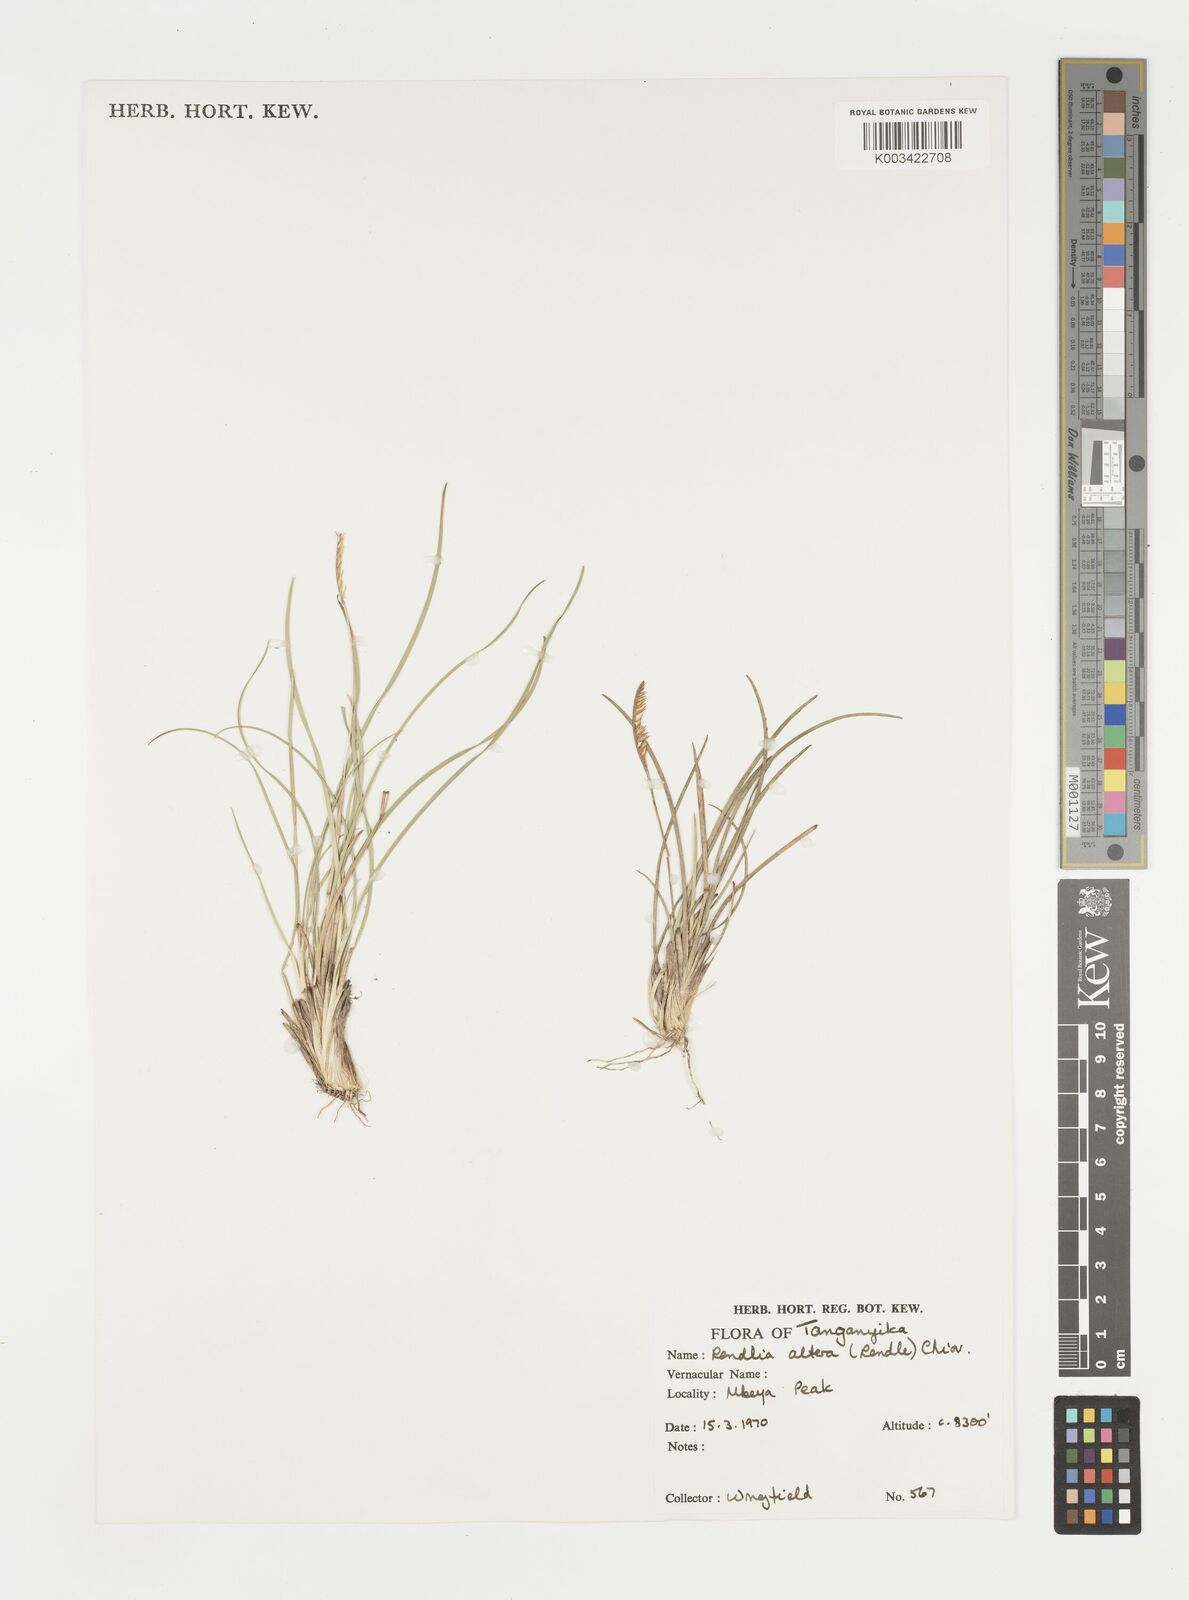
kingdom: Plantae
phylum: Tracheophyta
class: Liliopsida
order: Poales
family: Poaceae
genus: Microchloa
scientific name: Microchloa altera
